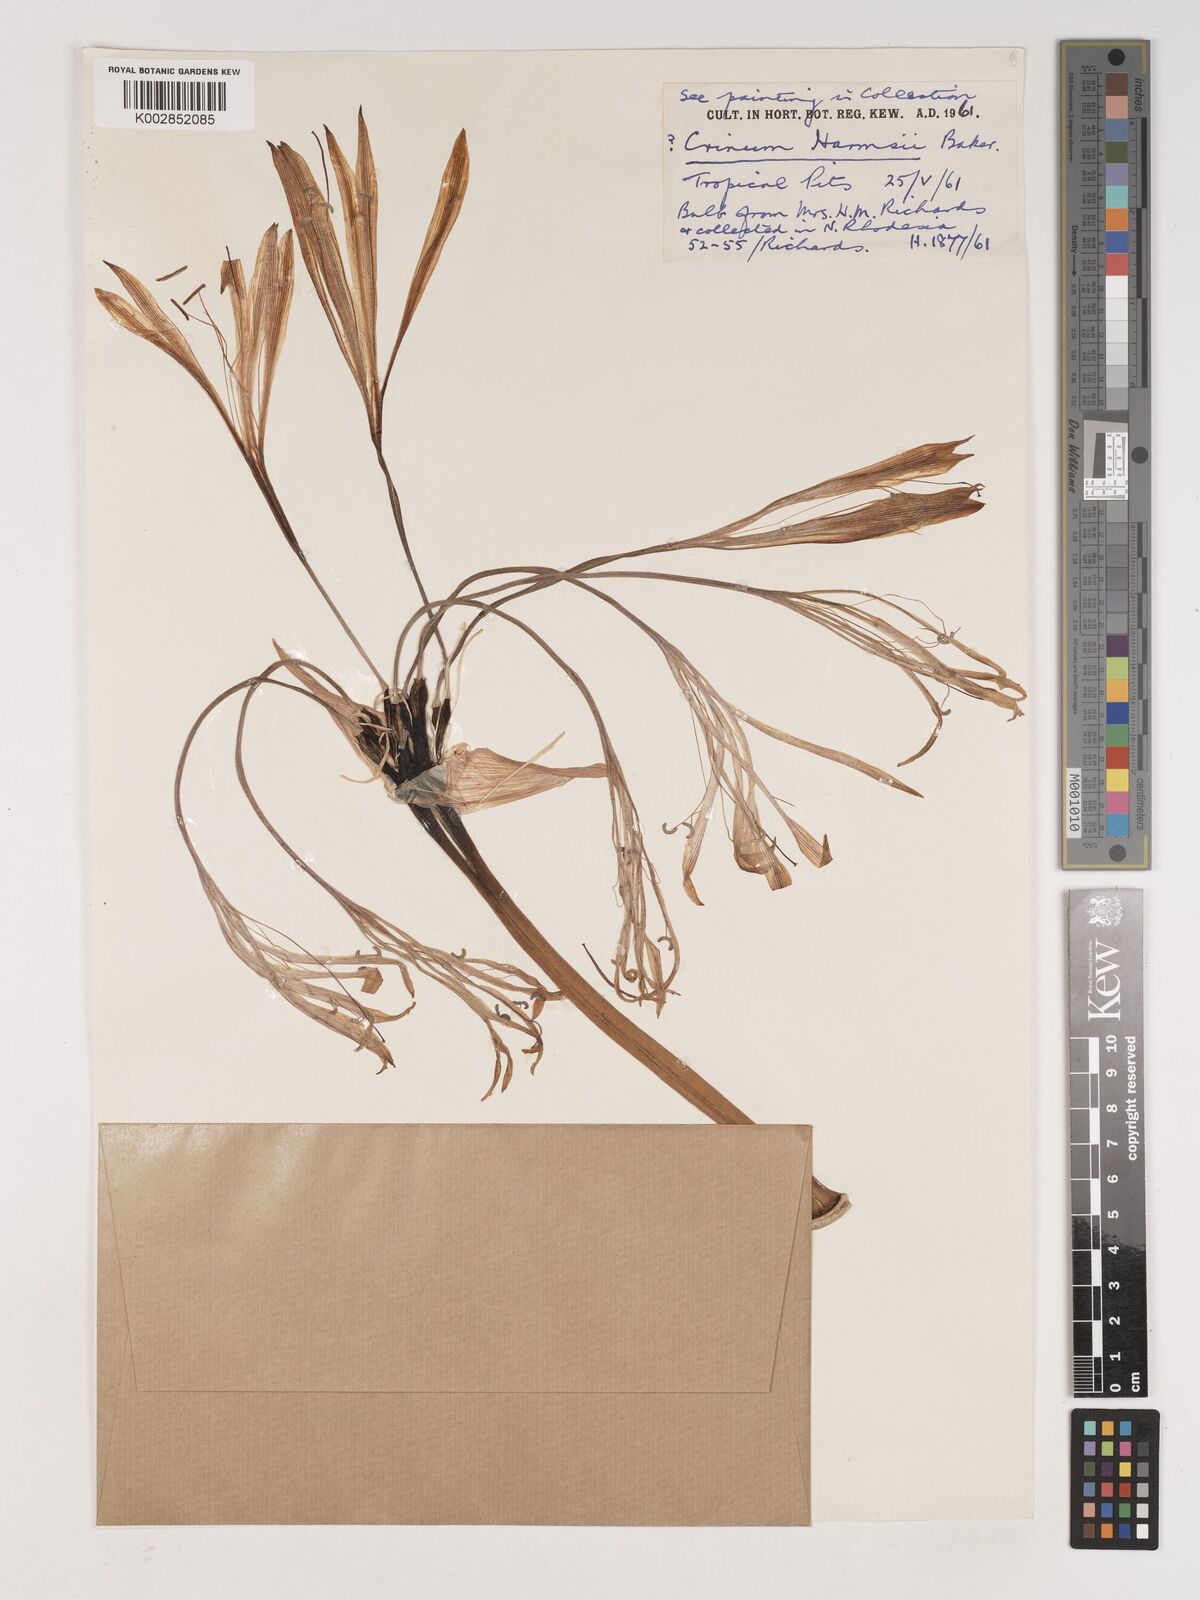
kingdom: Plantae
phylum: Tracheophyta
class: Liliopsida
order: Asparagales
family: Amaryllidaceae
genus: Crinum
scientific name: Crinum harmsii
